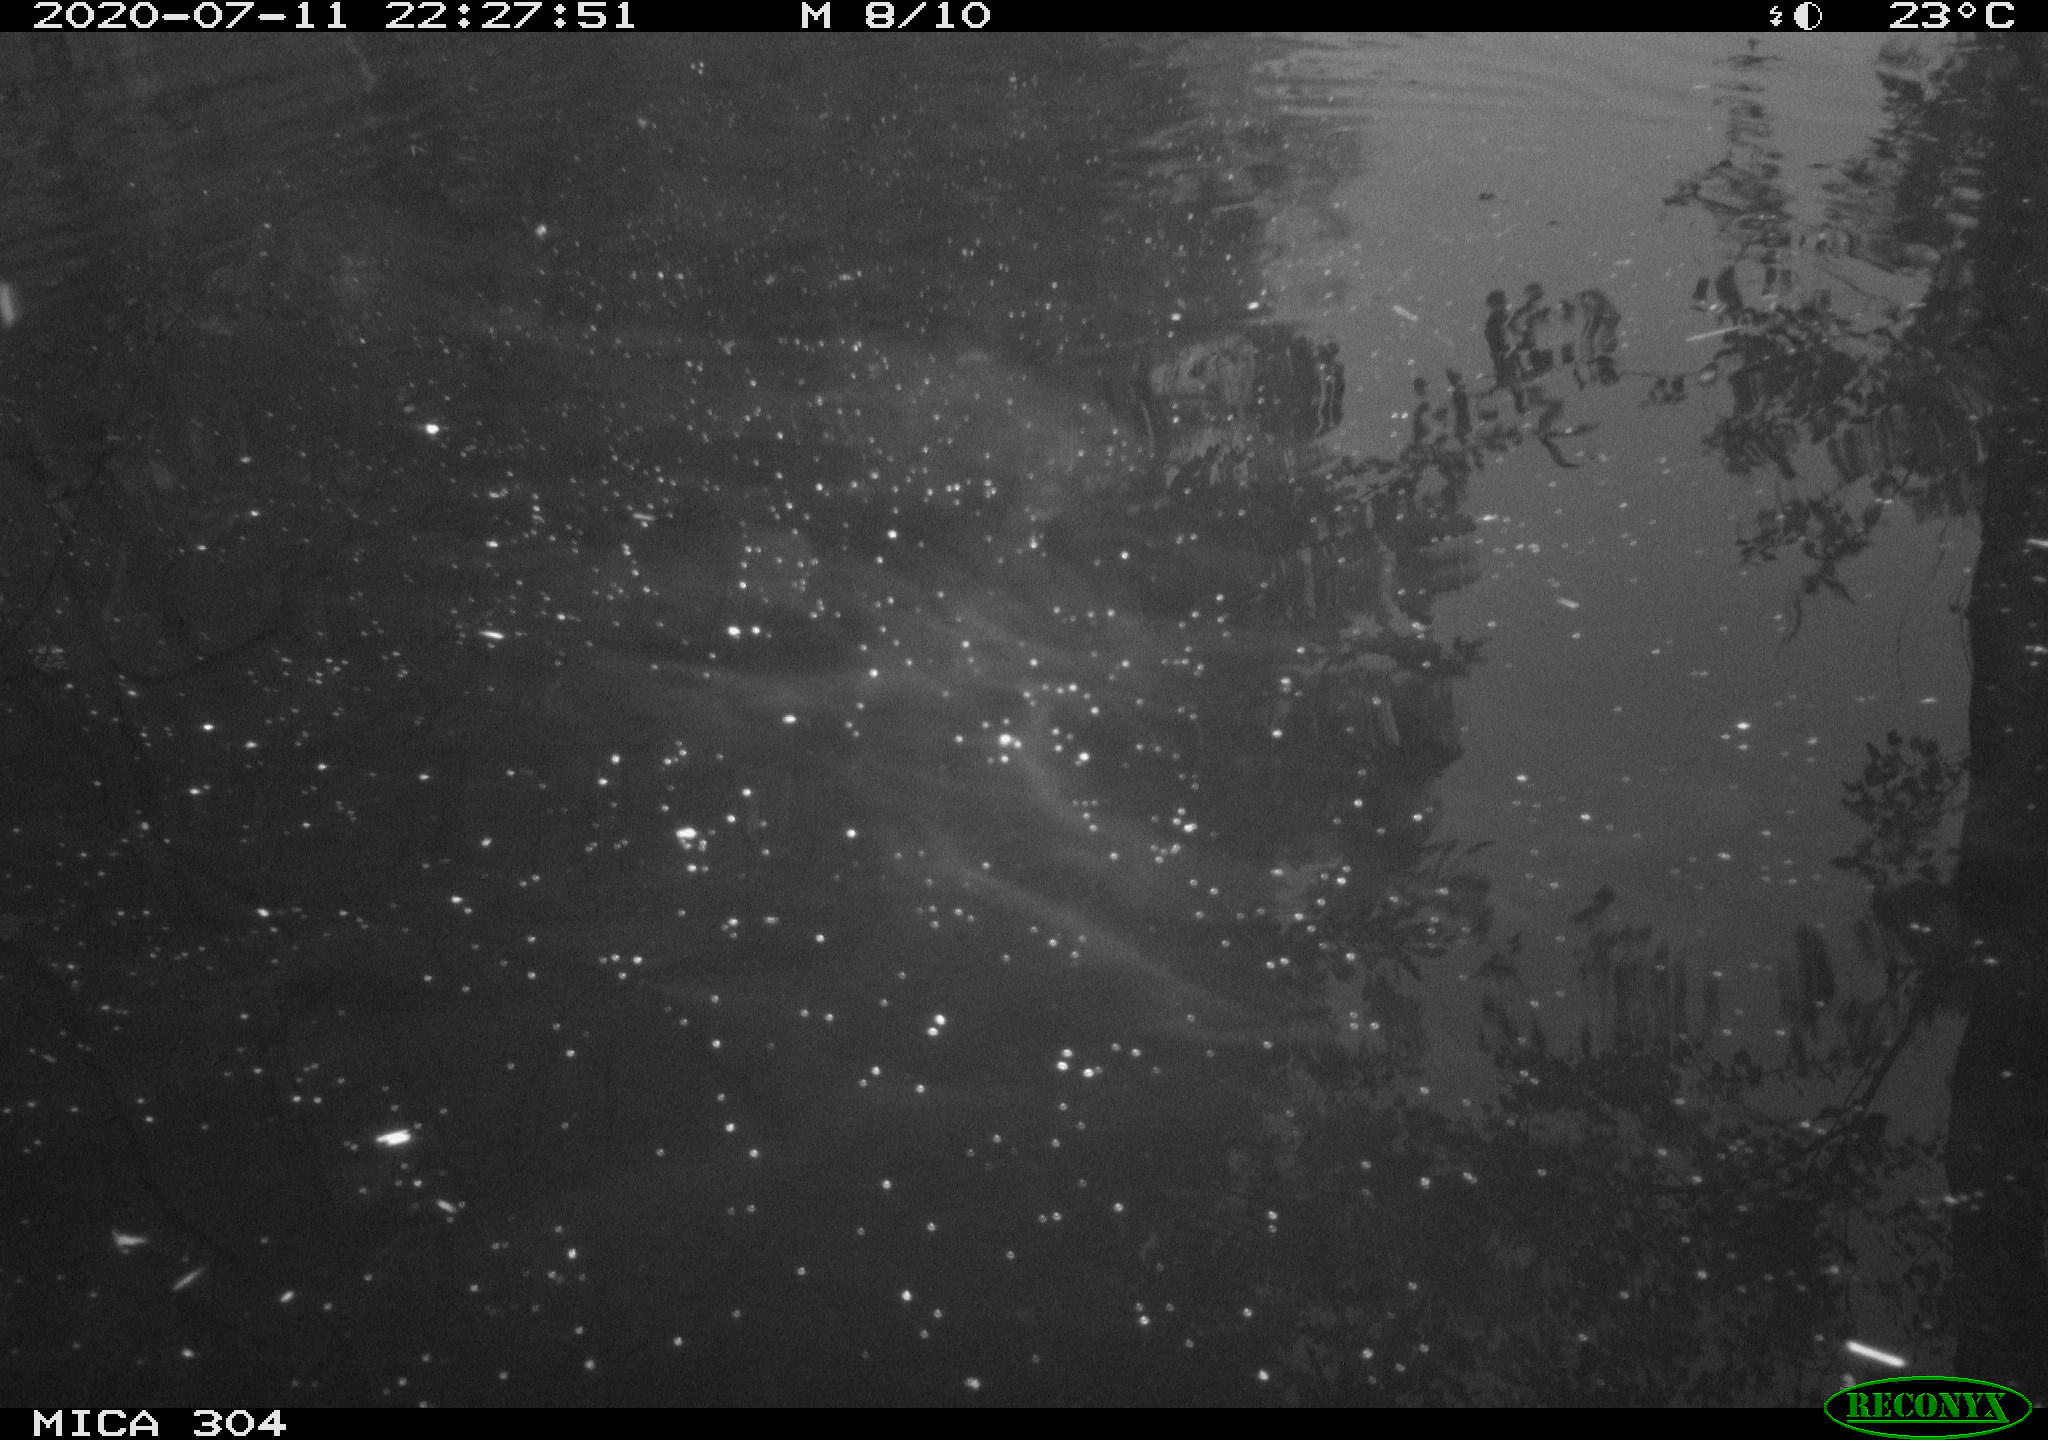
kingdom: Animalia
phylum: Chordata
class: Aves
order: Anseriformes
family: Anatidae
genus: Anas
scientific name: Anas platyrhynchos
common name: Mallard
